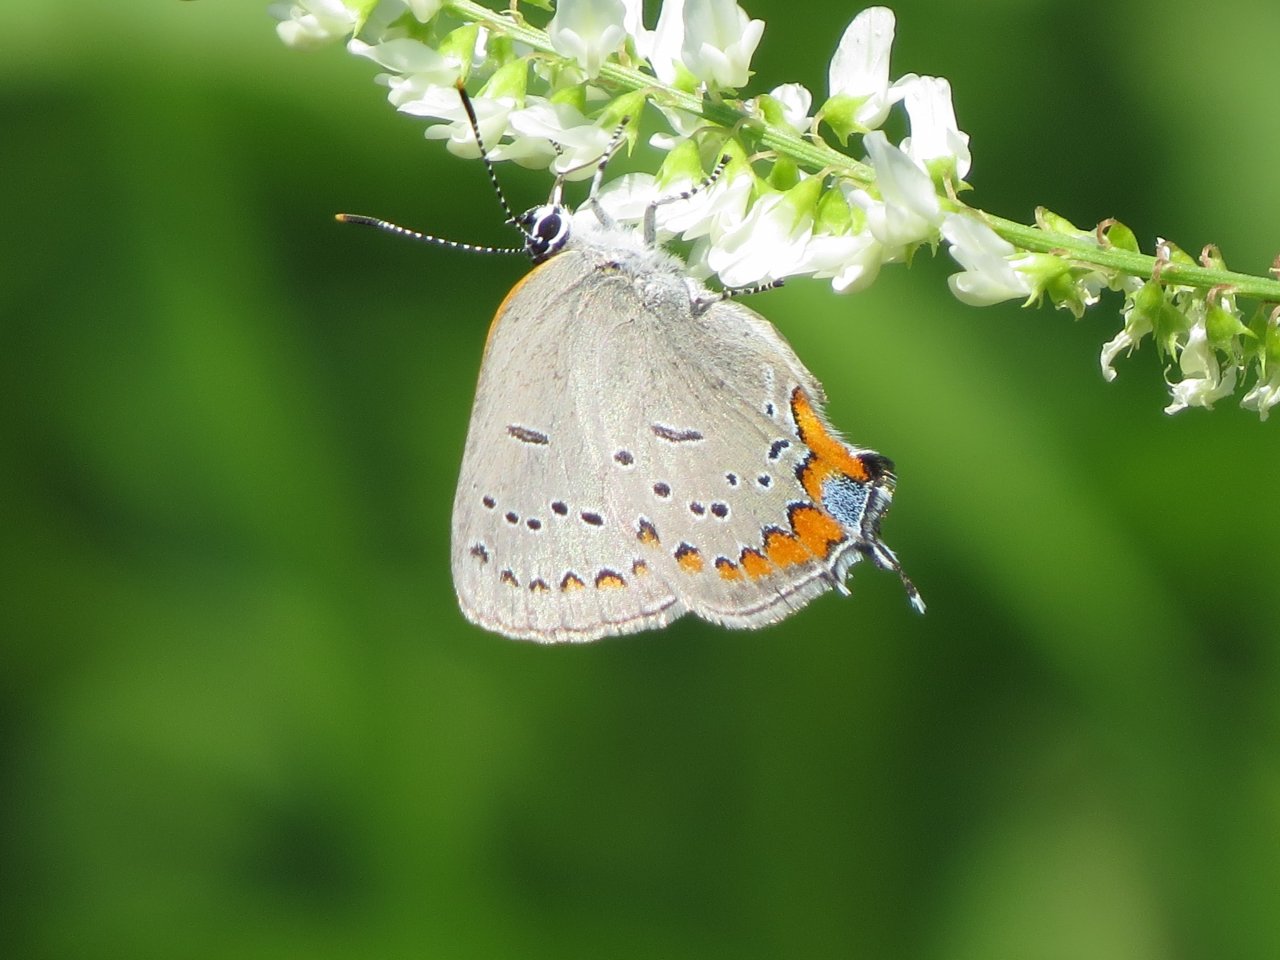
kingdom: Animalia
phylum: Arthropoda
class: Insecta
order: Lepidoptera
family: Lycaenidae
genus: Strymon
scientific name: Strymon acadica
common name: Acadian Hairstreak
